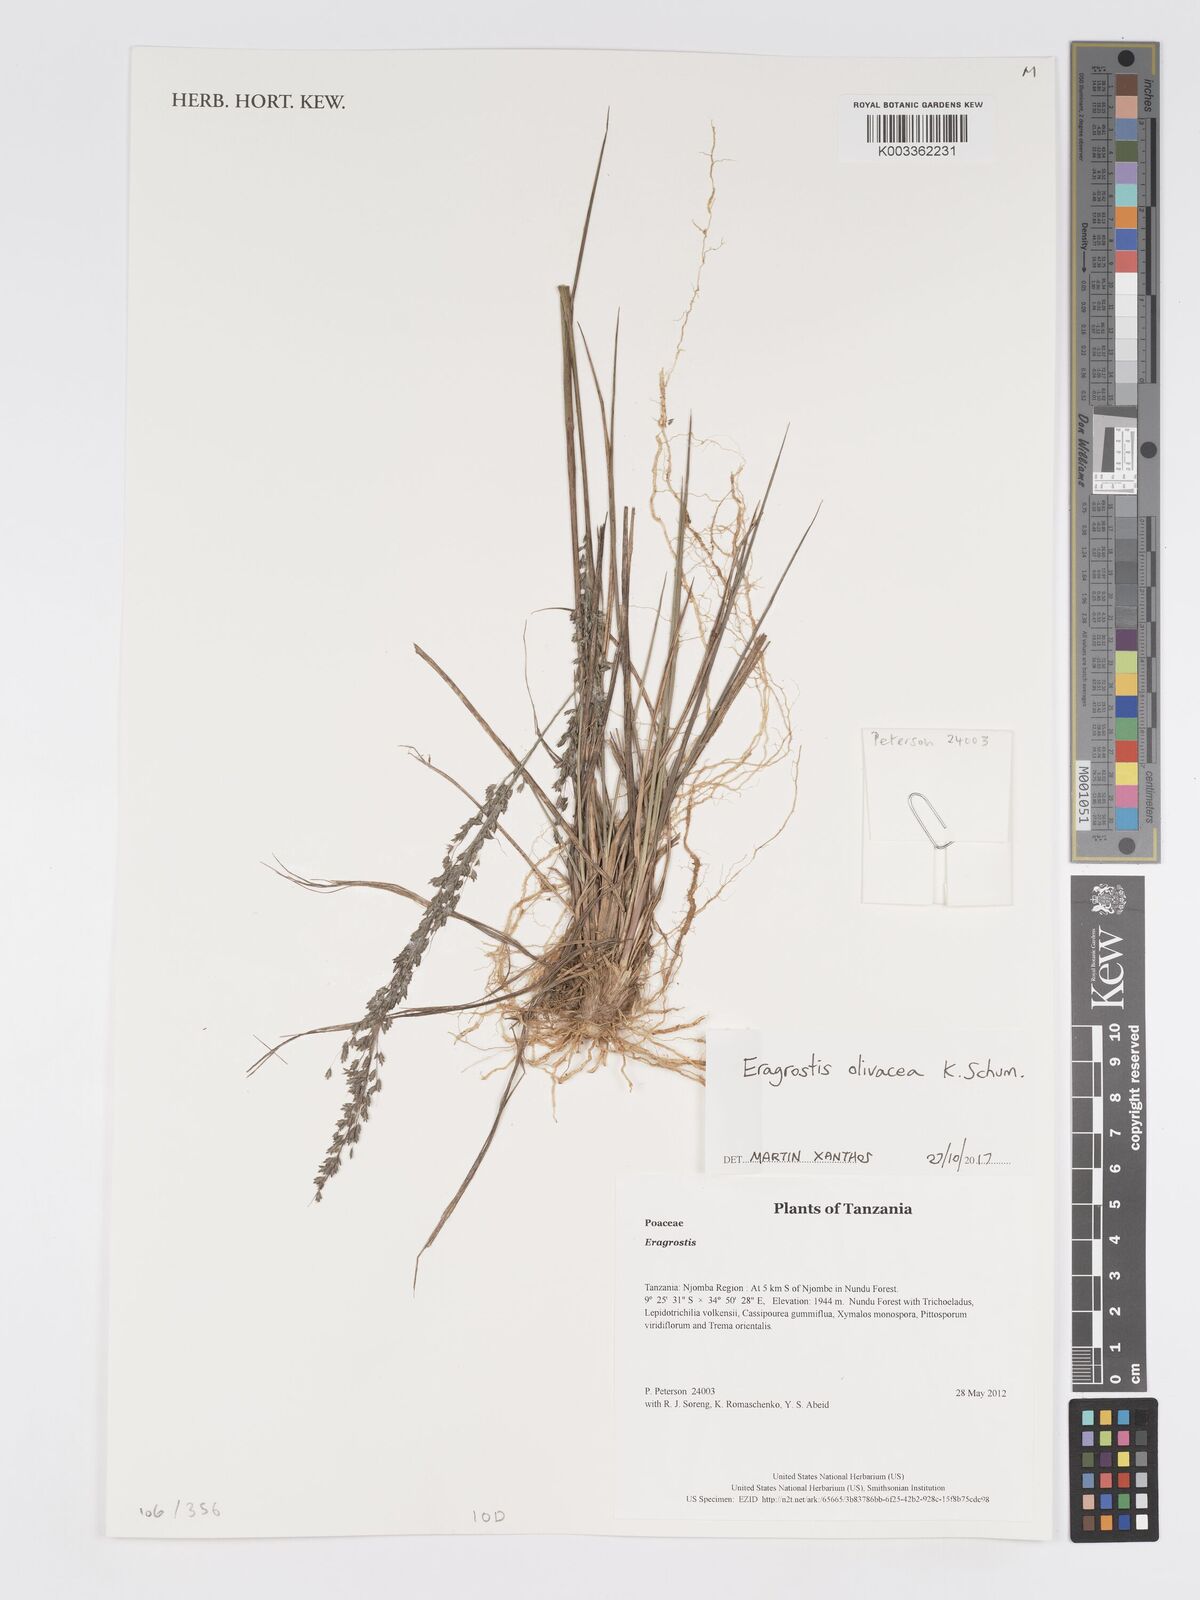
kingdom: Plantae
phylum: Tracheophyta
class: Liliopsida
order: Poales
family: Poaceae
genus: Eragrostis
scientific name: Eragrostis olivacea
